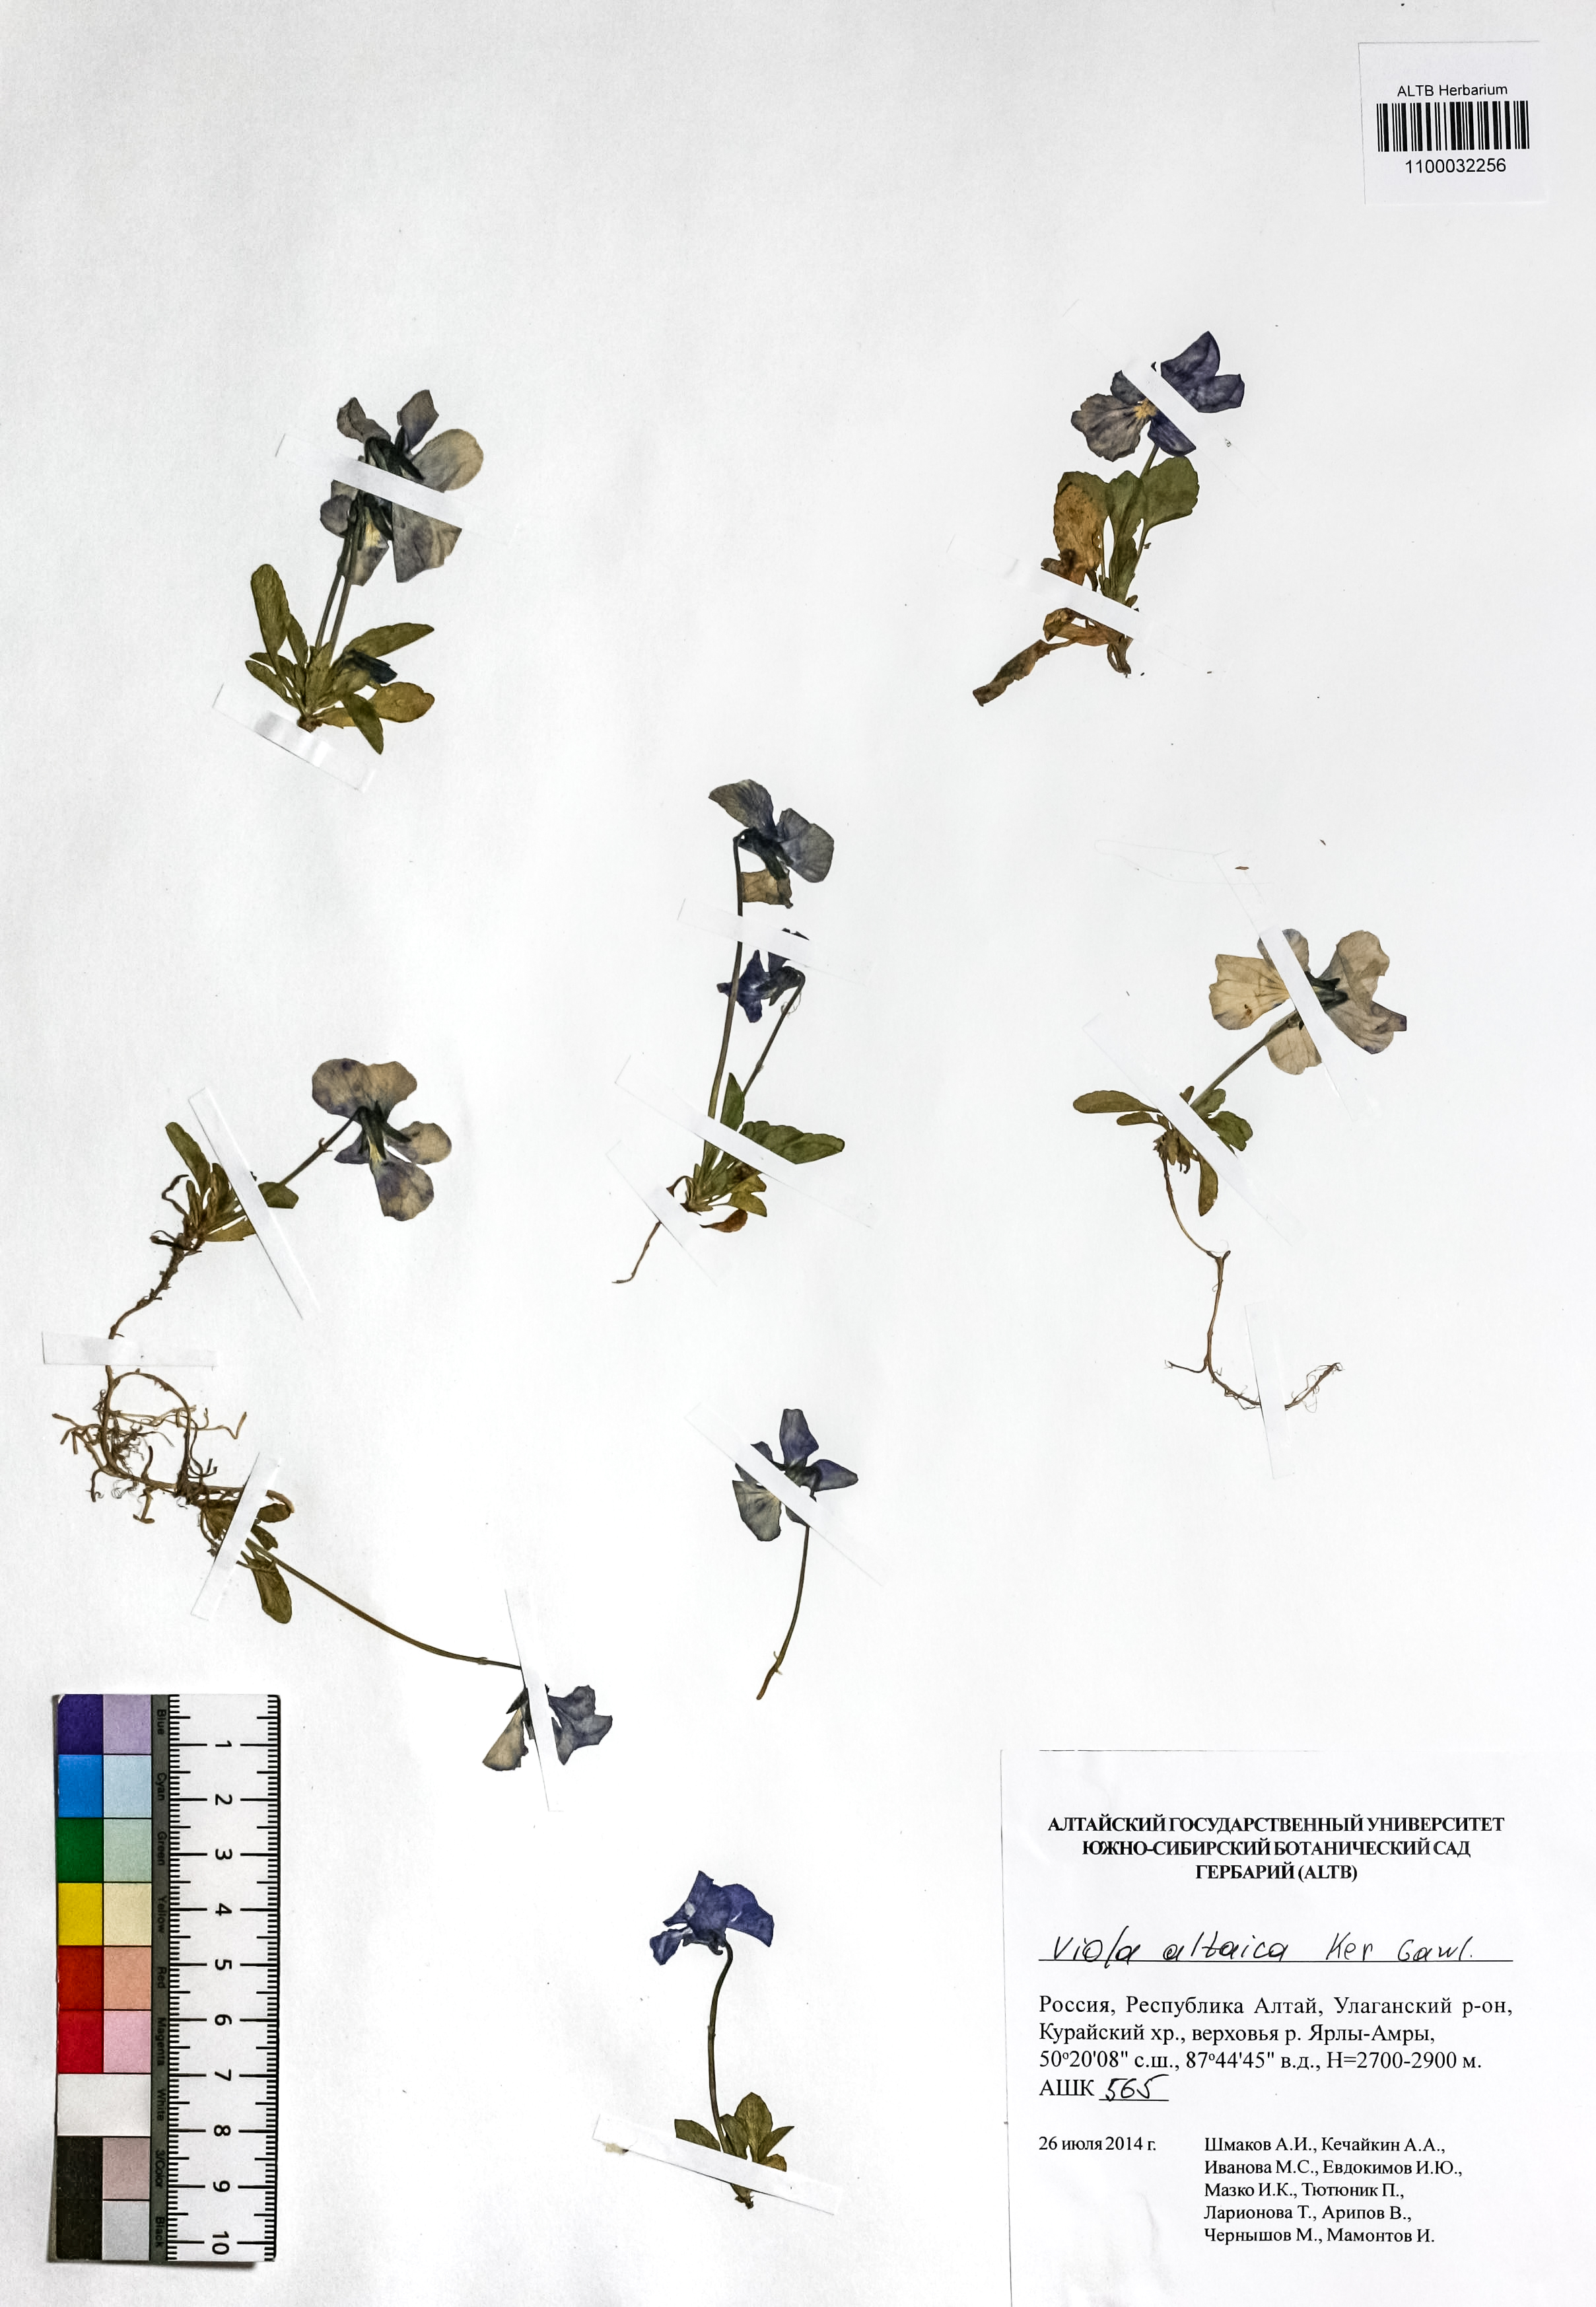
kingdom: Plantae
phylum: Tracheophyta
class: Magnoliopsida
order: Malpighiales
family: Violaceae
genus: Viola
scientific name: Viola altaica
